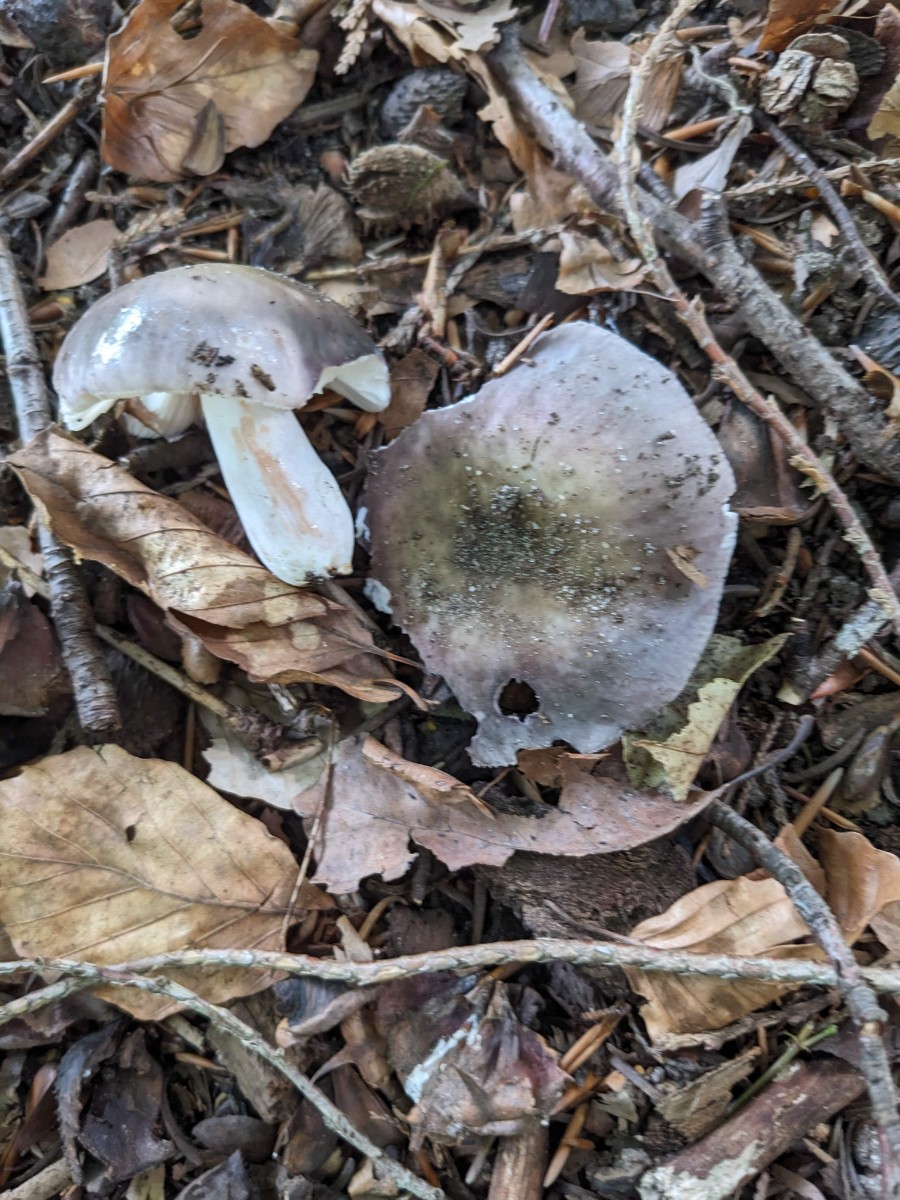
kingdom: Fungi
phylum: Basidiomycota
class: Agaricomycetes
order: Russulales
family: Russulaceae
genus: Russula
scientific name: Russula ionochlora
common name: violetgrøn skørhat
